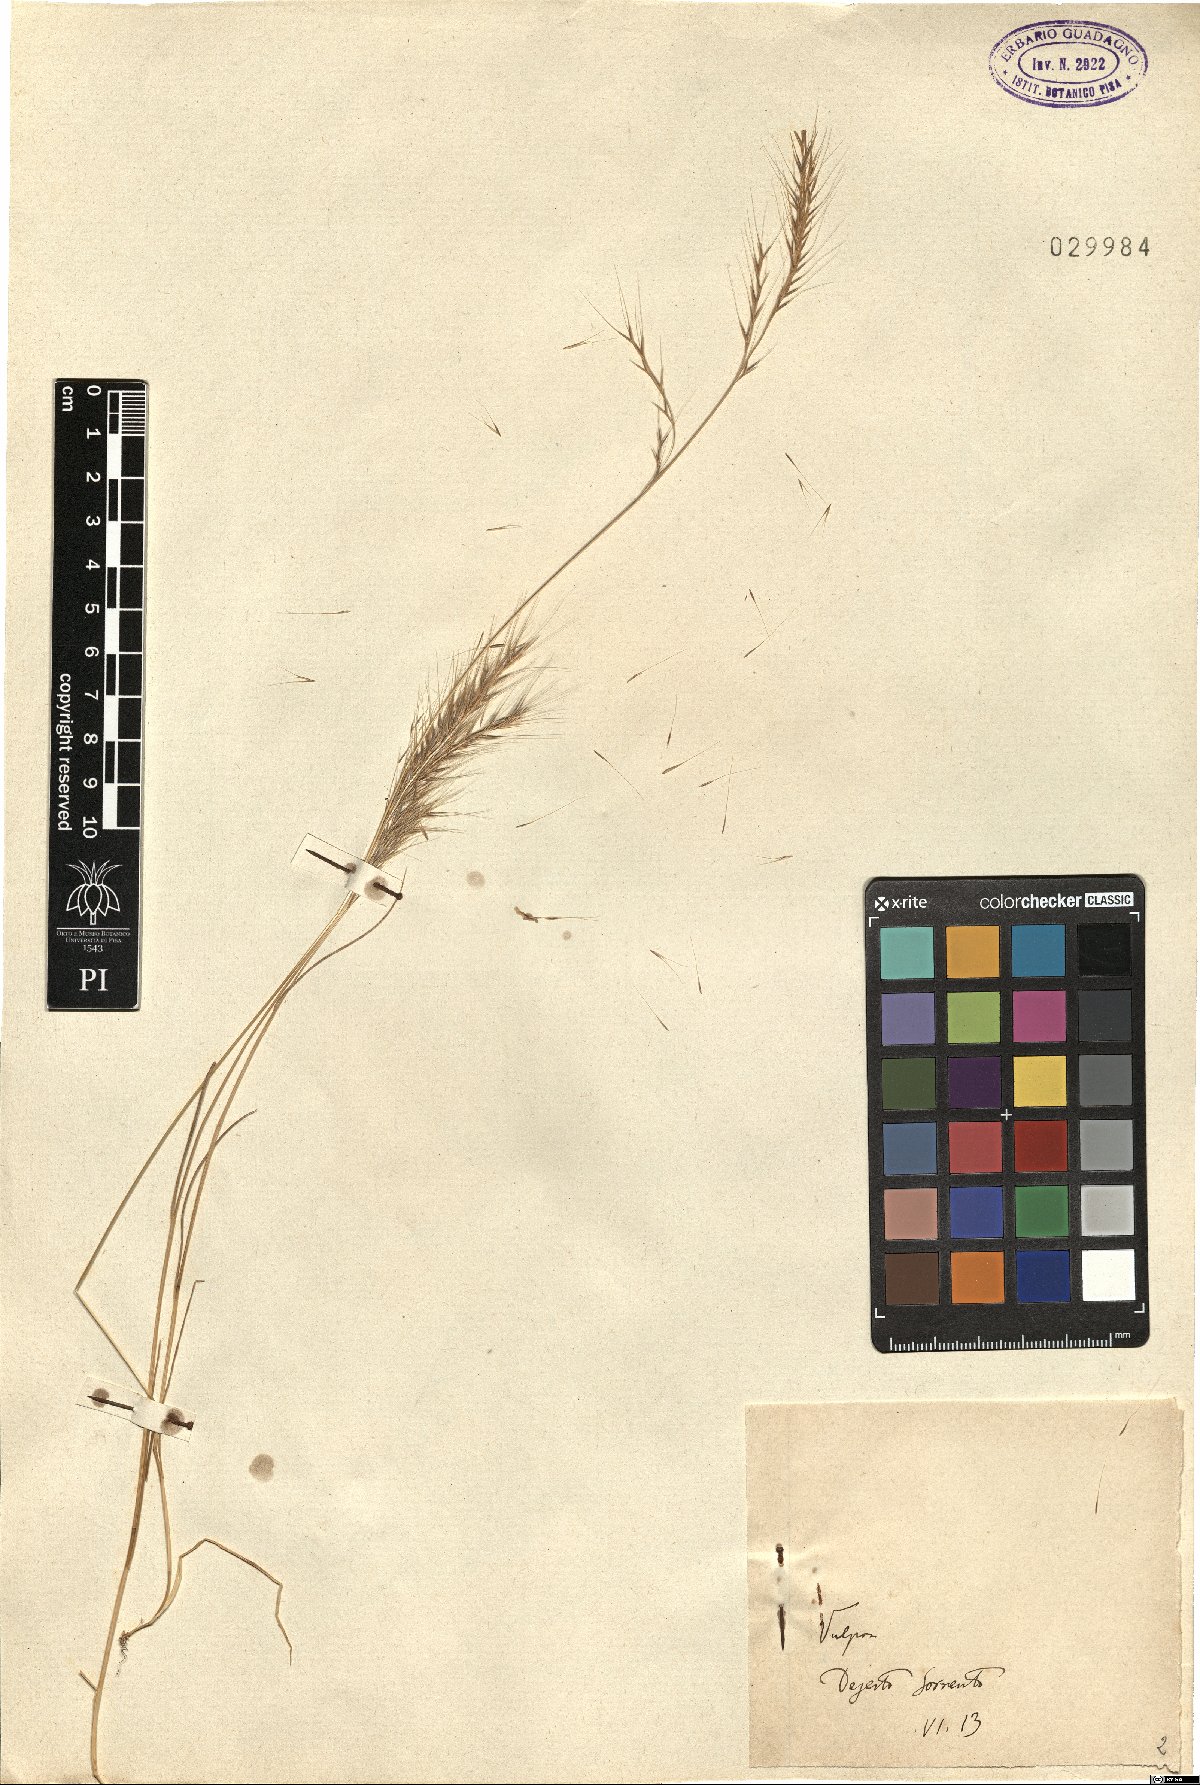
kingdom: Plantae
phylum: Tracheophyta
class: Liliopsida
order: Poales
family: Poaceae
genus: Festuca
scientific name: Festuca
